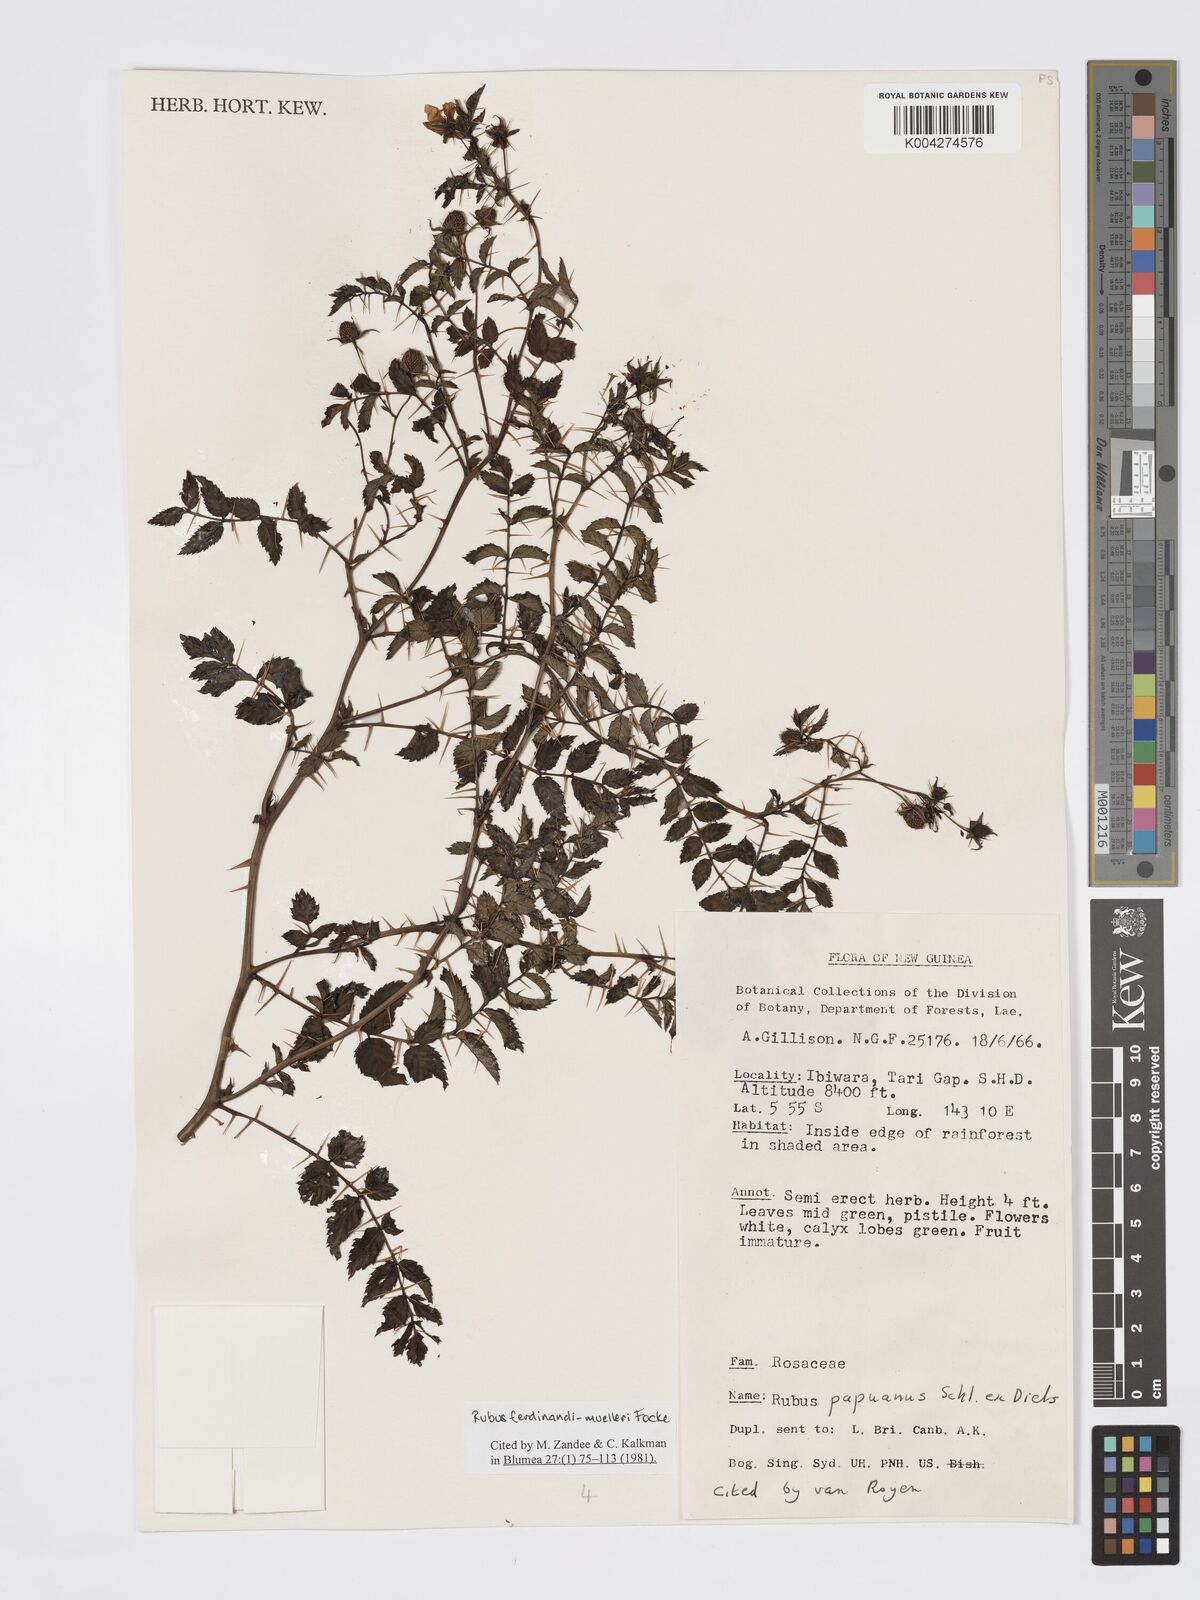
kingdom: Plantae
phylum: Tracheophyta
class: Magnoliopsida
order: Rosales
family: Rosaceae
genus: Rubus
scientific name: Rubus ferdinandimuelleri
